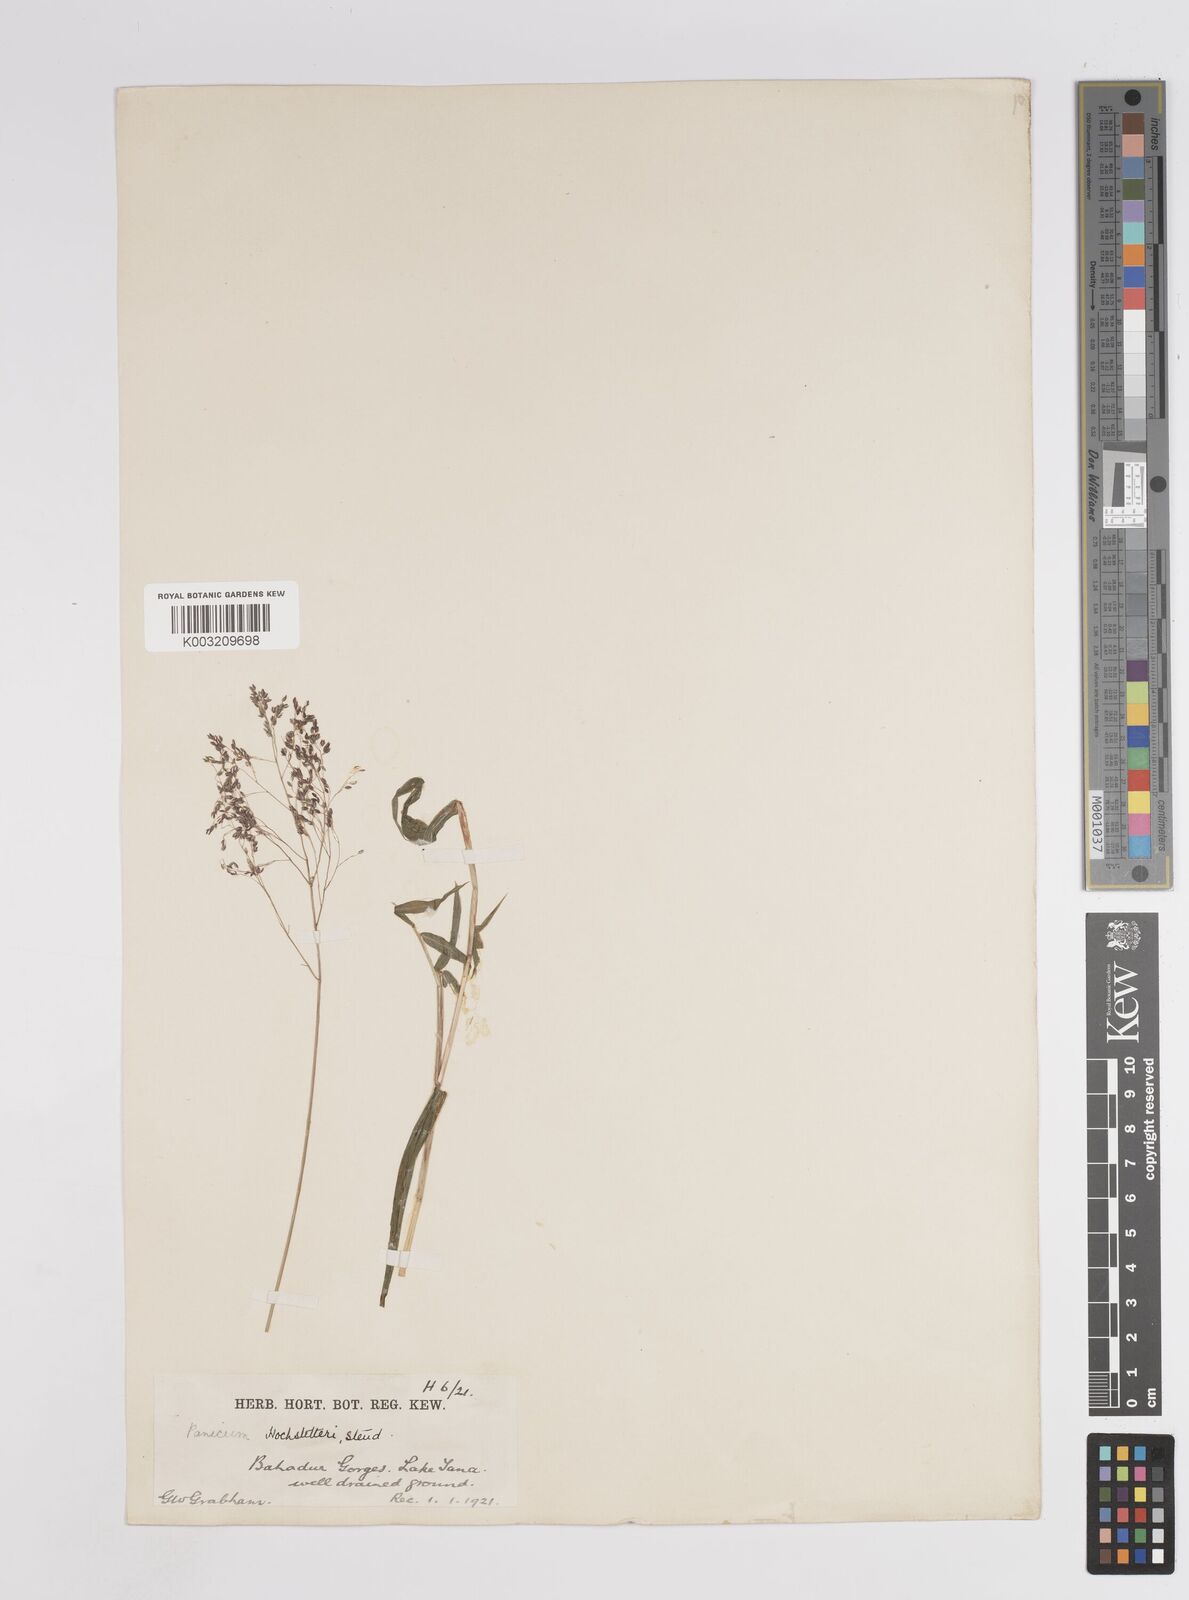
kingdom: Plantae
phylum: Tracheophyta
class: Liliopsida
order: Poales
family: Poaceae
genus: Panicum
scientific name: Panicum hochstetteri
